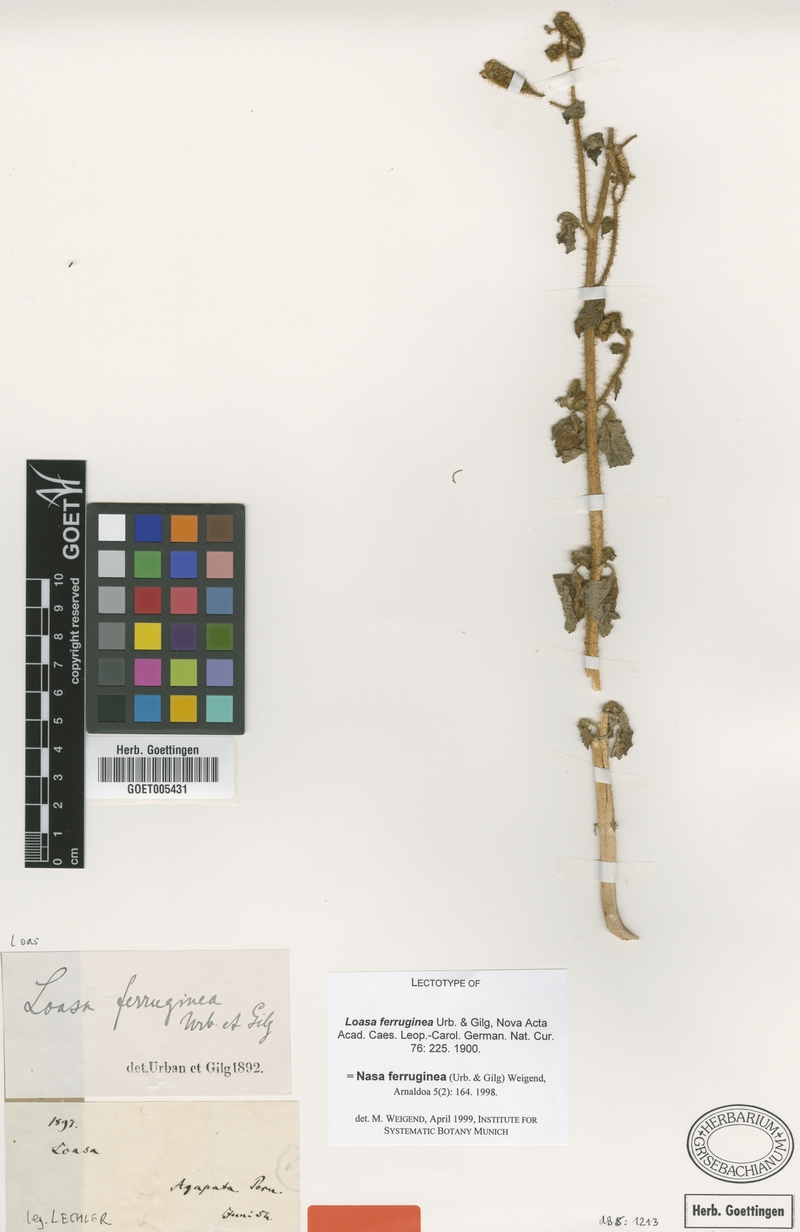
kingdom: Plantae
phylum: Tracheophyta
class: Magnoliopsida
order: Cornales
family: Loasaceae
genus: Nasa
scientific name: Nasa ferruginea
